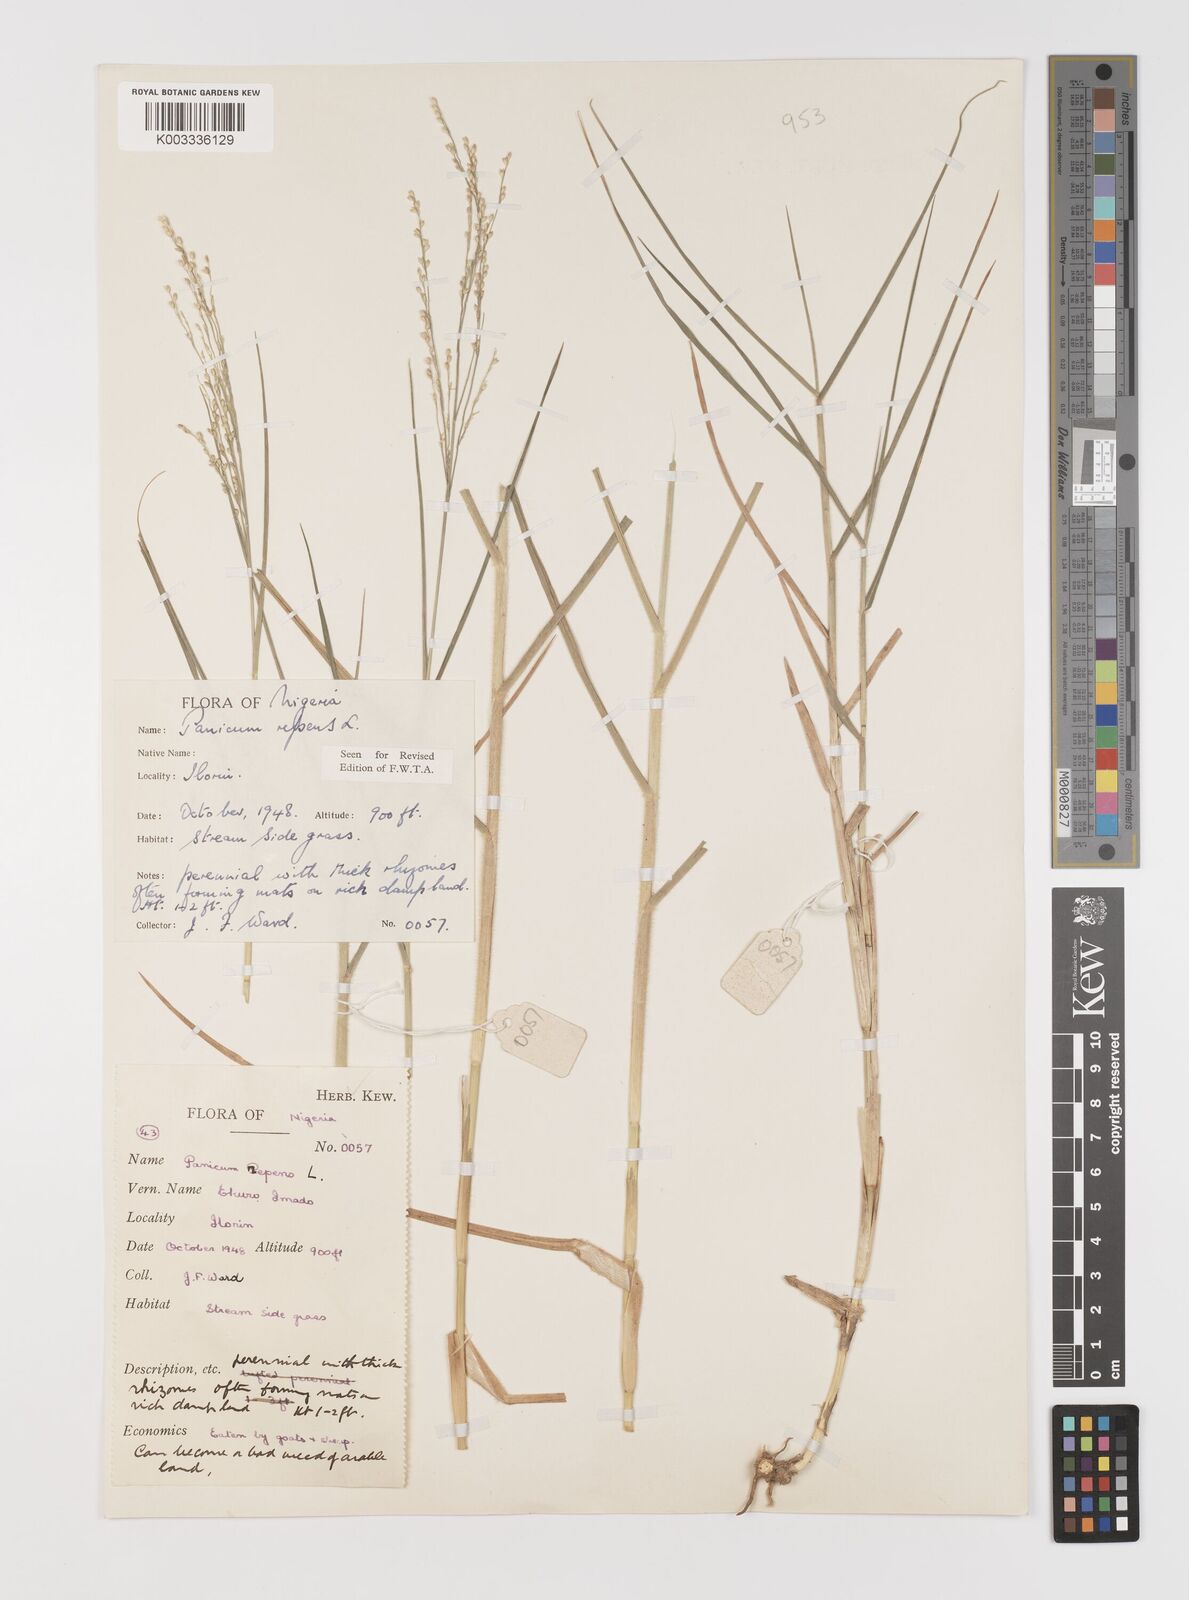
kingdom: Plantae
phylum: Tracheophyta
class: Liliopsida
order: Poales
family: Poaceae
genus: Panicum
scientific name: Panicum repens
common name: Torpedo grass
